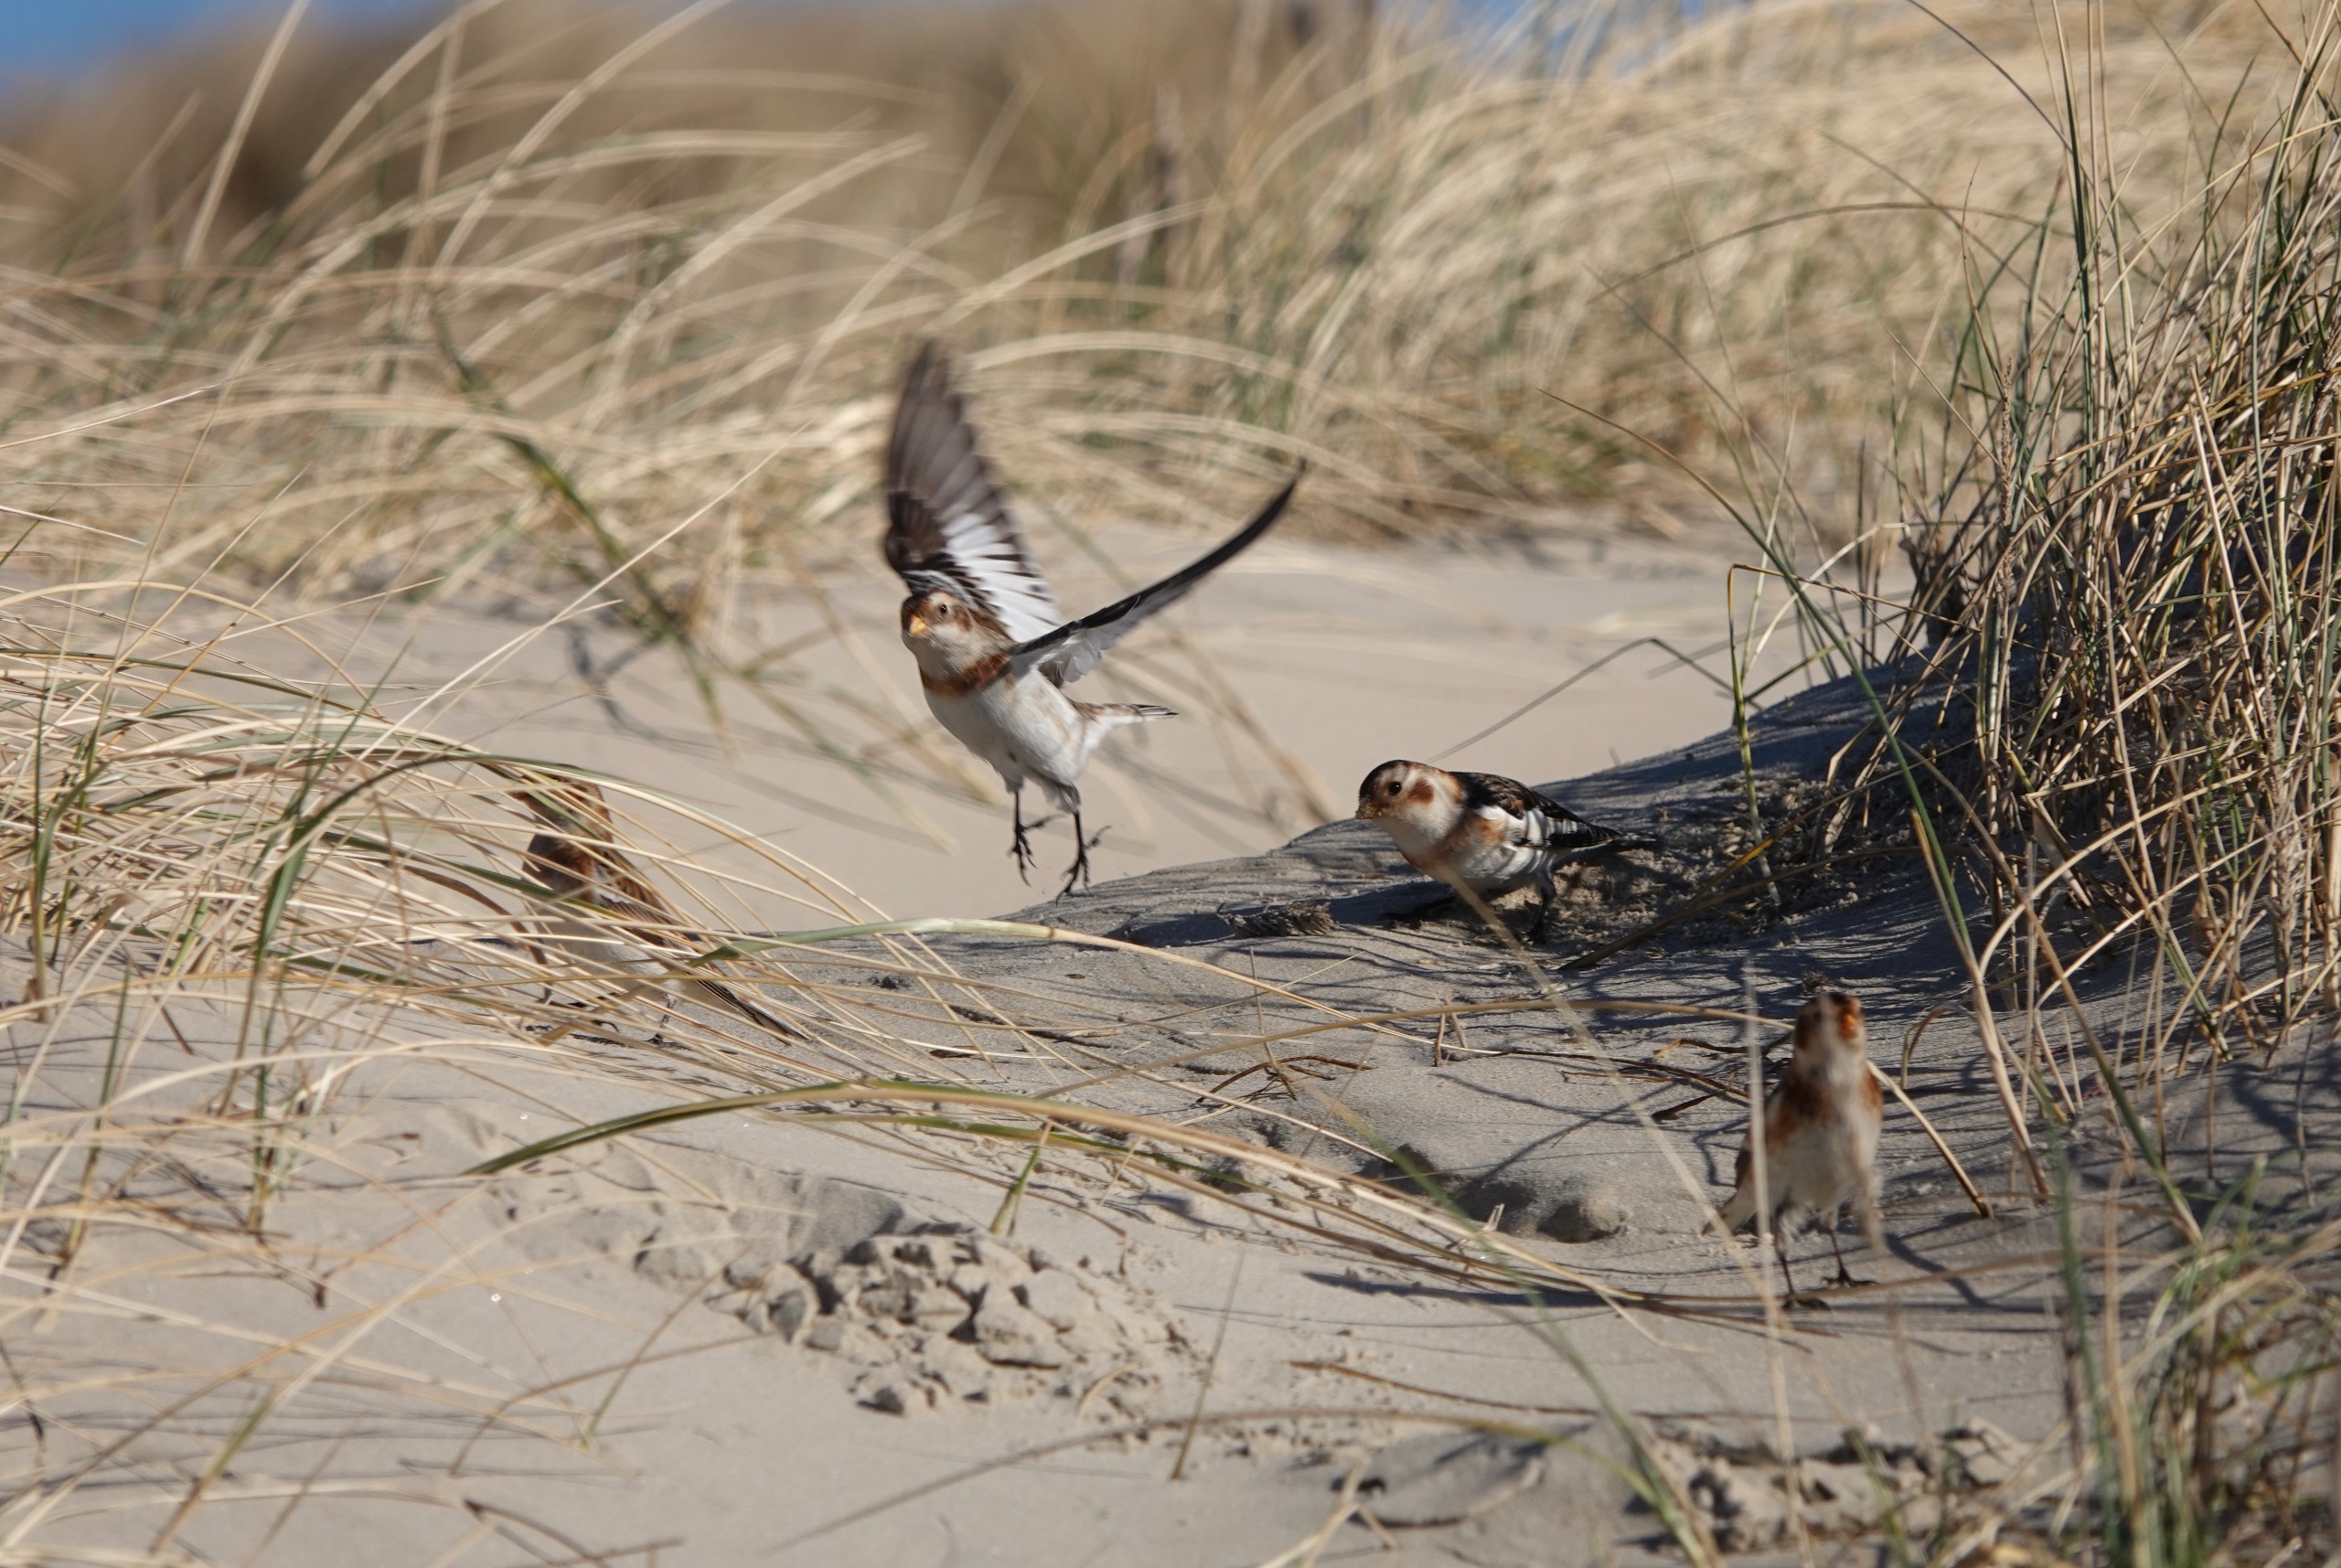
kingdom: Animalia
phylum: Chordata
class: Aves
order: Passeriformes
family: Calcariidae
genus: Plectrophenax
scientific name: Plectrophenax nivalis
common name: Snespurv
